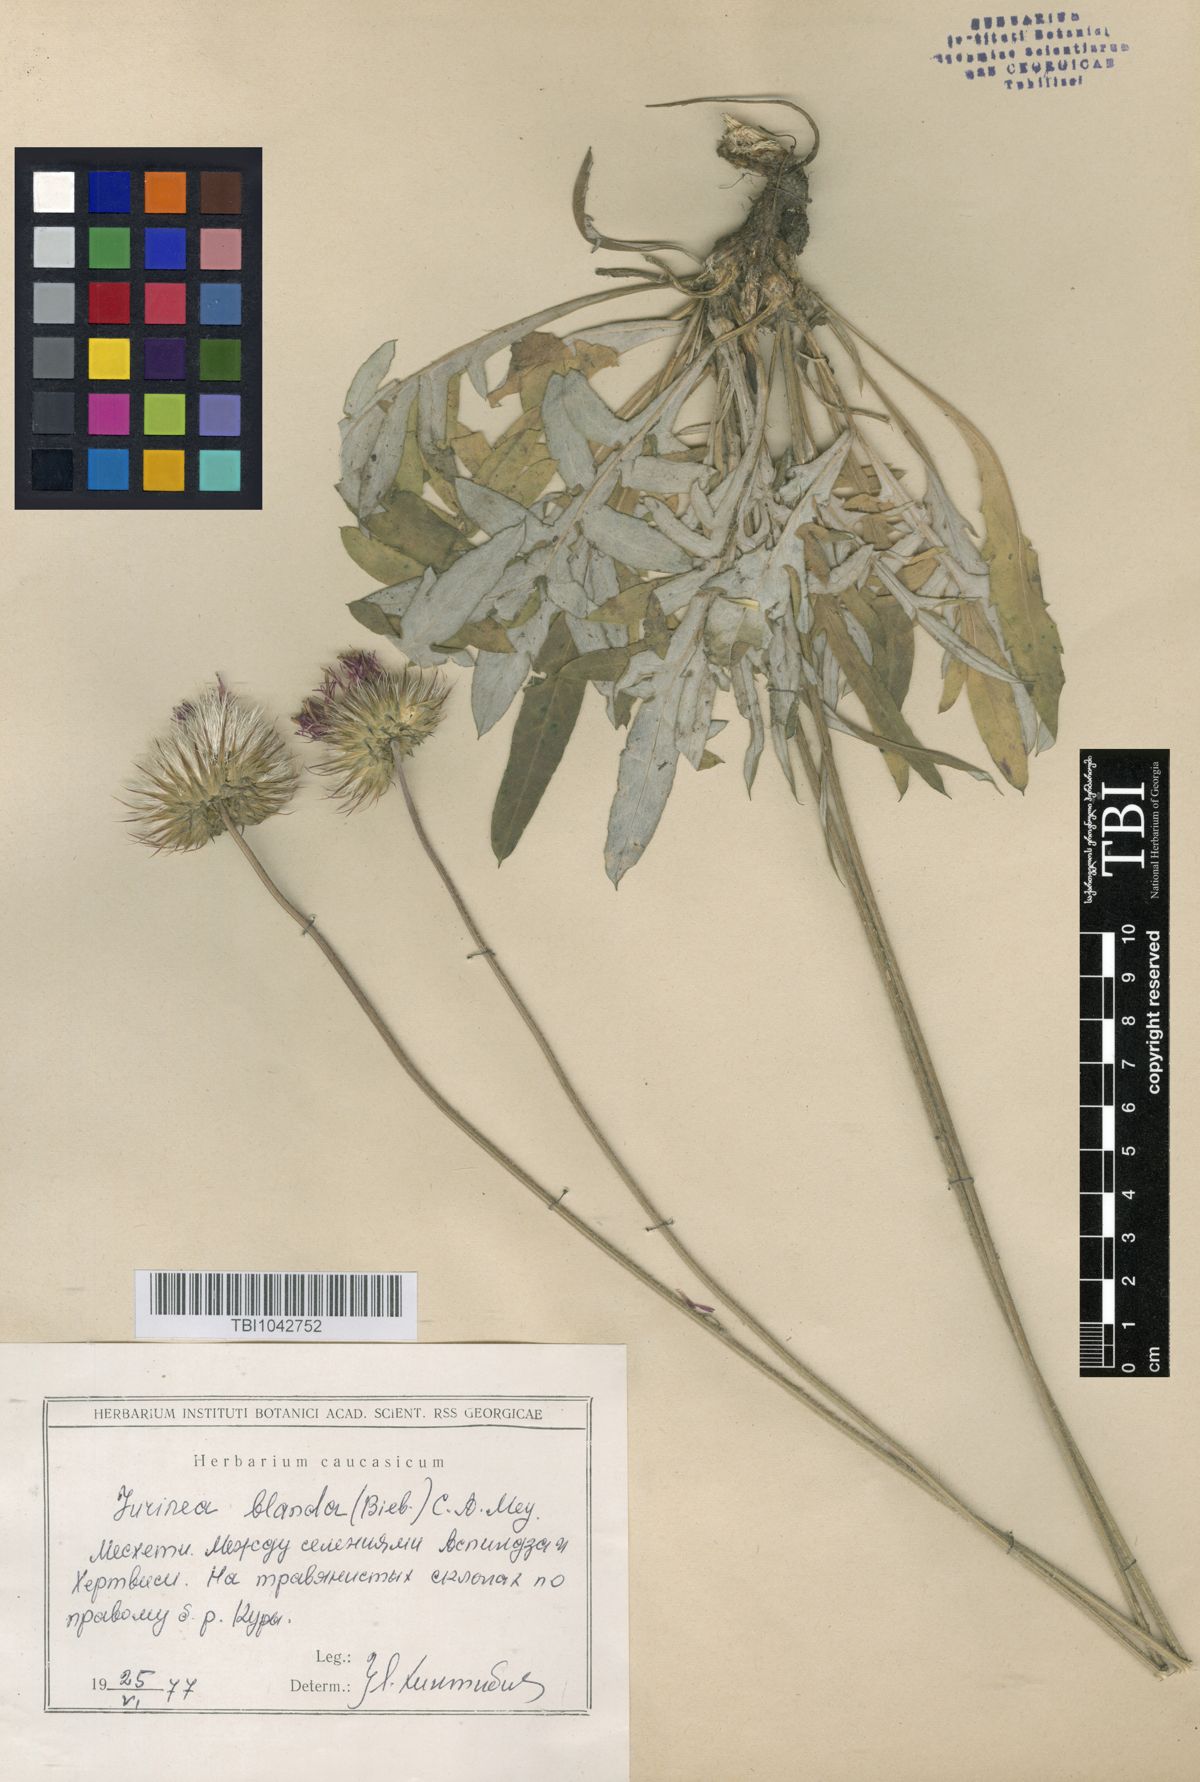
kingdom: Plantae
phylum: Tracheophyta
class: Magnoliopsida
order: Asterales
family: Asteraceae
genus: Jurinea
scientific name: Jurinea blanda
